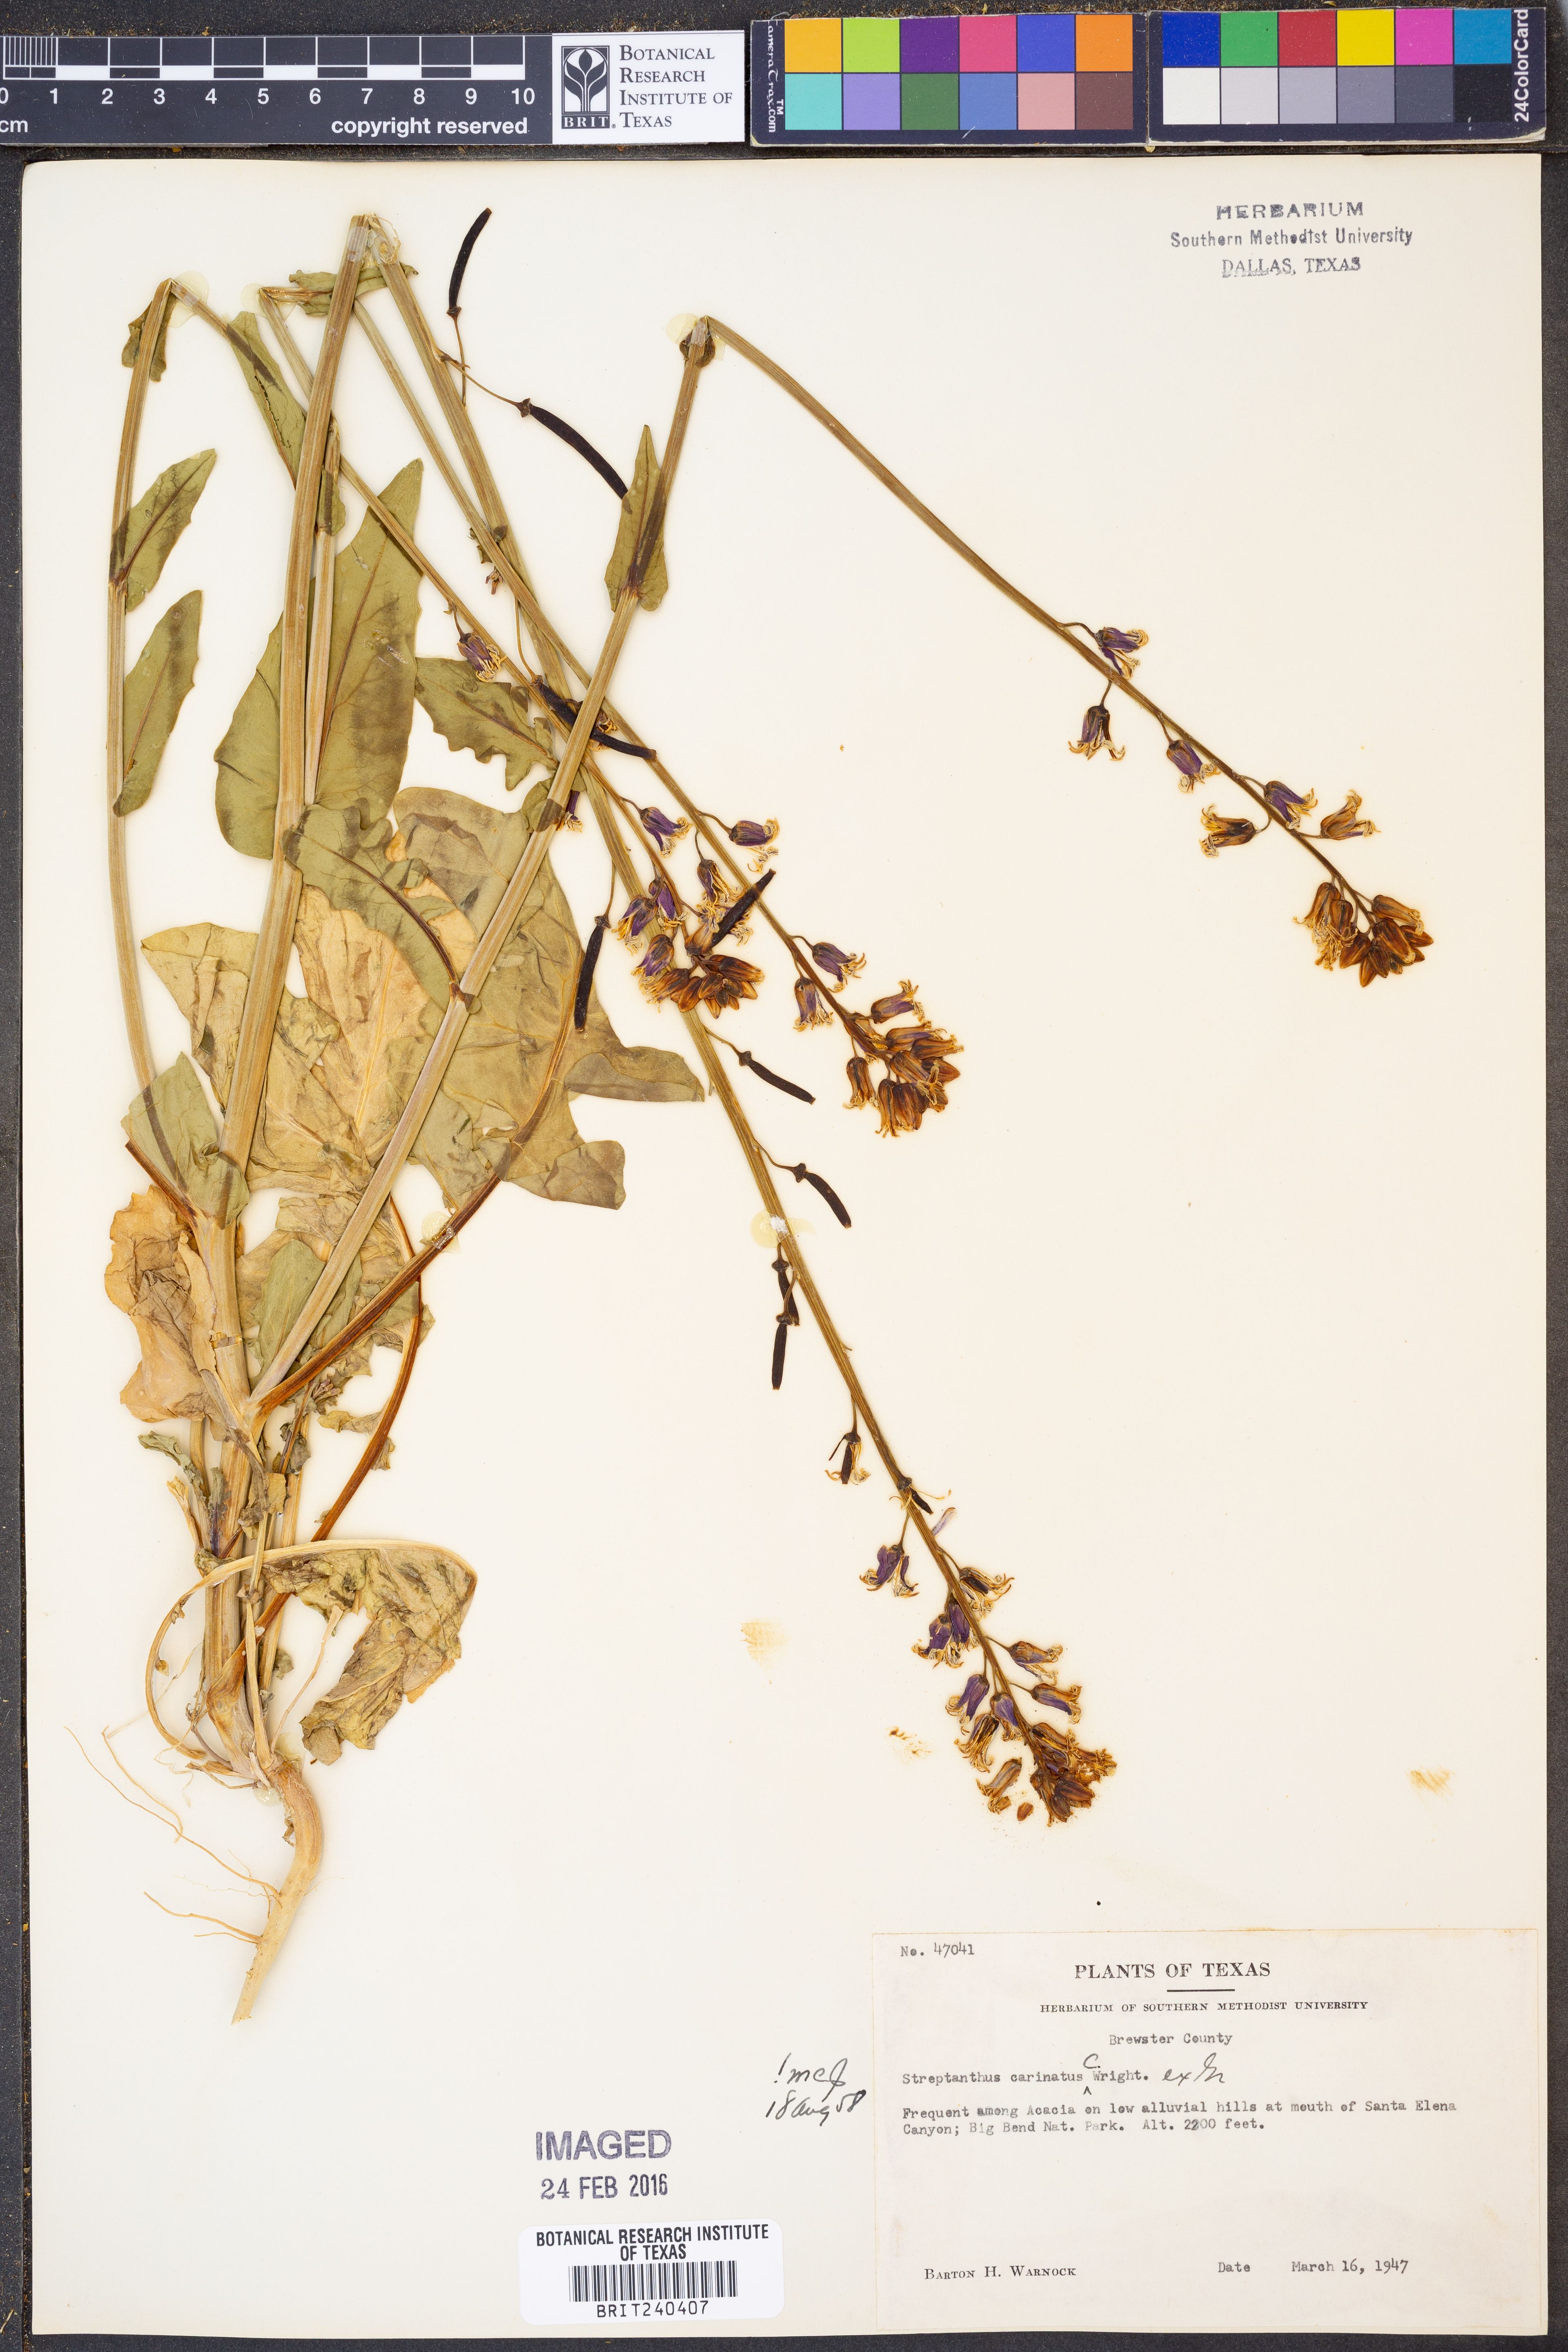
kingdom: Plantae
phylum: Tracheophyta
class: Magnoliopsida
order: Brassicales
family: Brassicaceae
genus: Streptanthus
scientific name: Streptanthus carinatus
